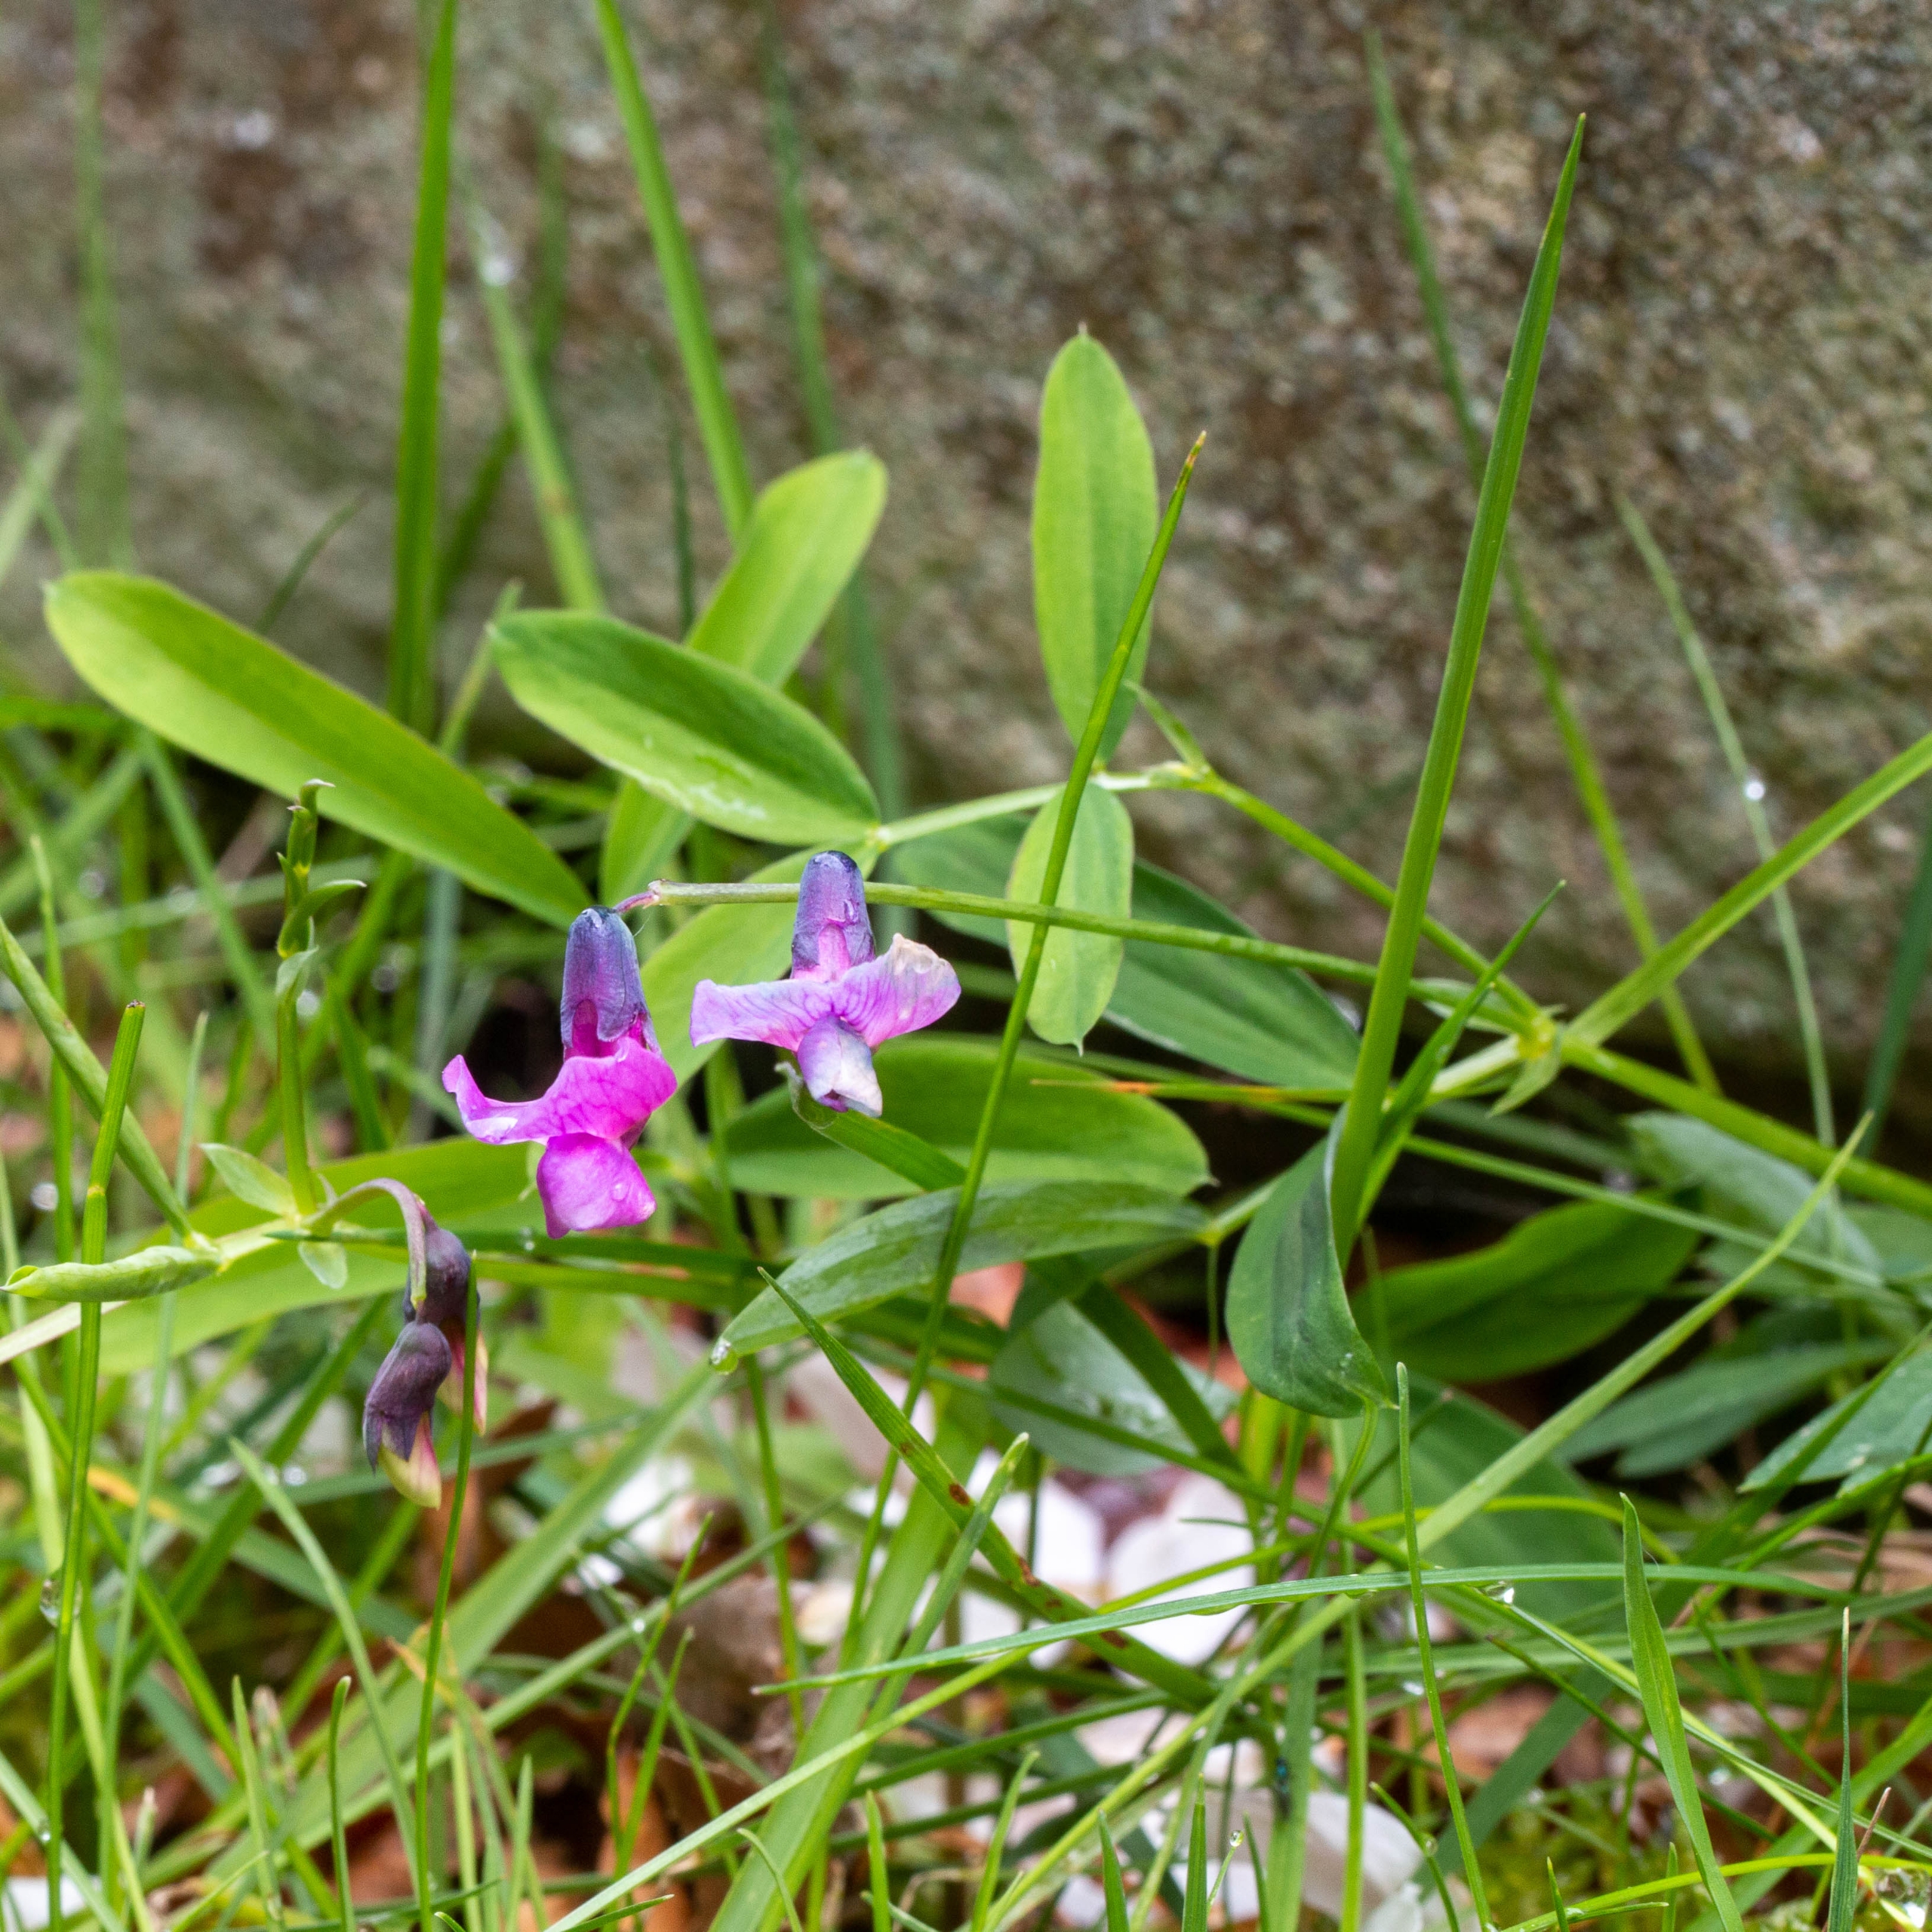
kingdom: Plantae
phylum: Tracheophyta
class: Magnoliopsida
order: Fabales
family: Fabaceae
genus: Lathyrus
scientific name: Lathyrus linifolius
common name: Krat-fladbælg
